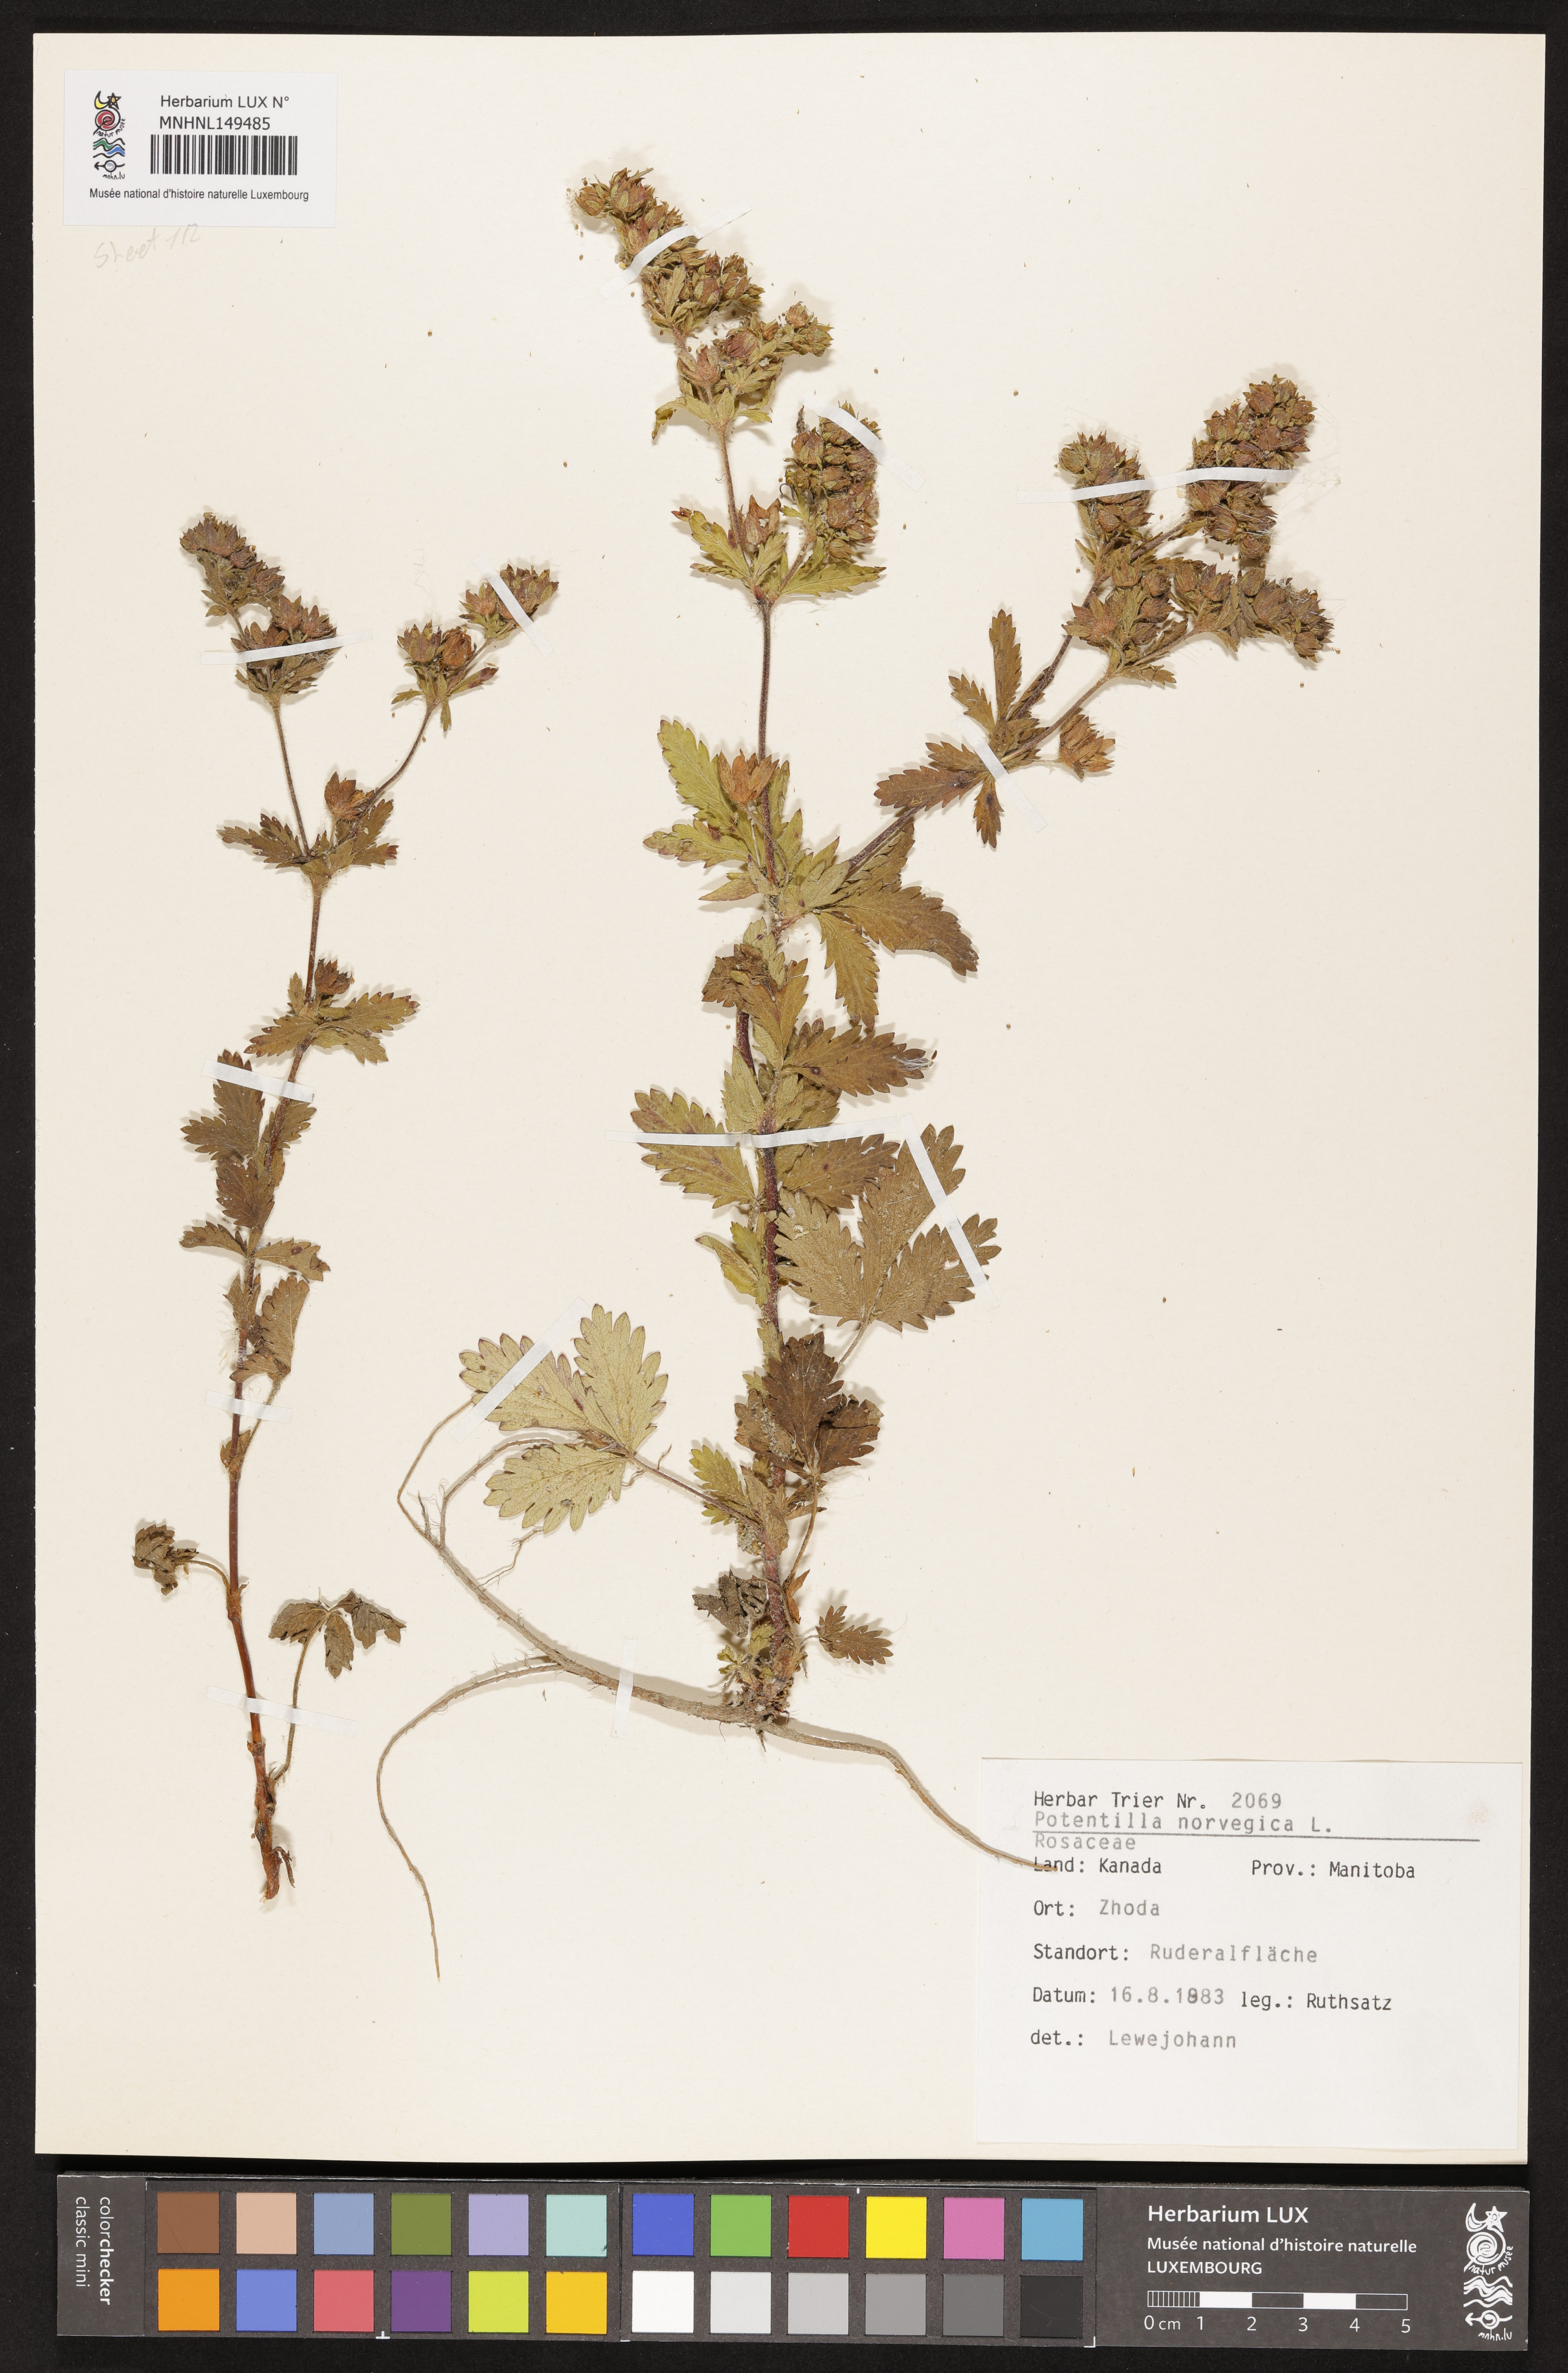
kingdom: Plantae
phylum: Tracheophyta
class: Magnoliopsida
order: Rosales
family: Rosaceae
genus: Potentilla
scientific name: Potentilla norvegica
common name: Ternate-leaved cinquefoil
